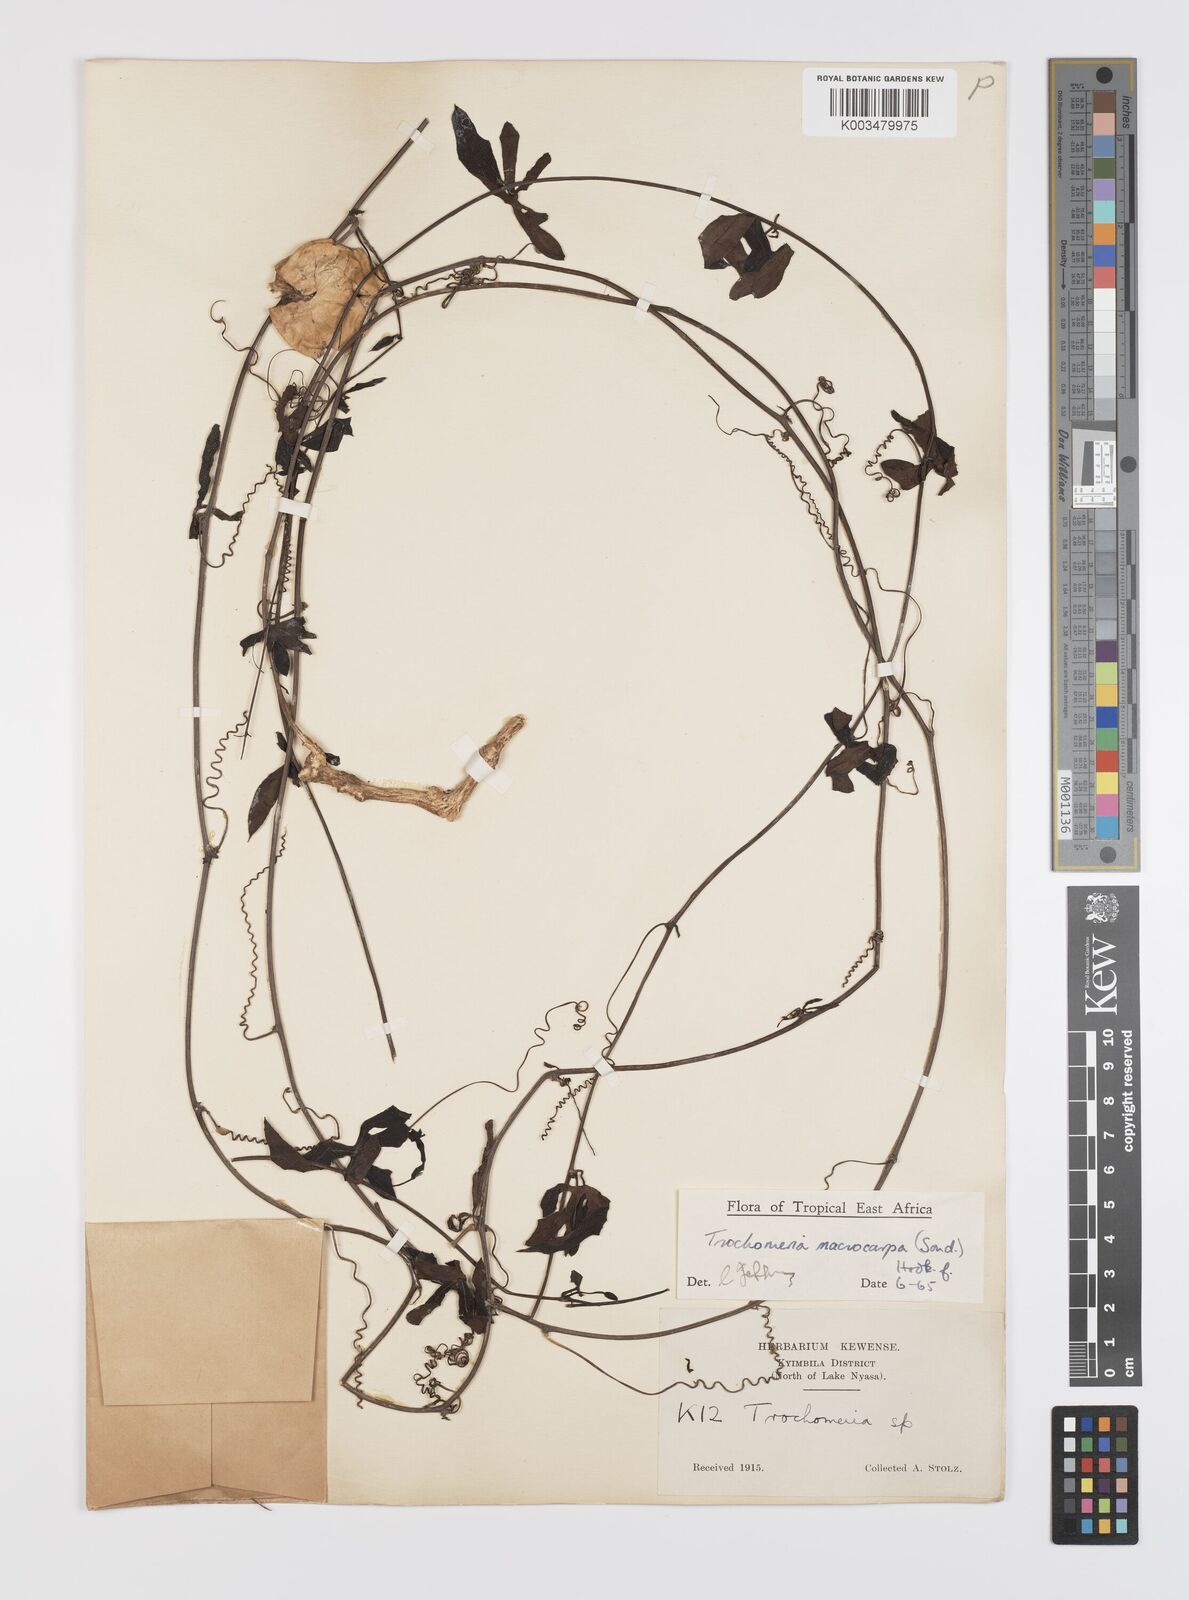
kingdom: Plantae
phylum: Tracheophyta
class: Magnoliopsida
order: Cucurbitales
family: Cucurbitaceae
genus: Trochomeria
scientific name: Trochomeria macrocarpa
